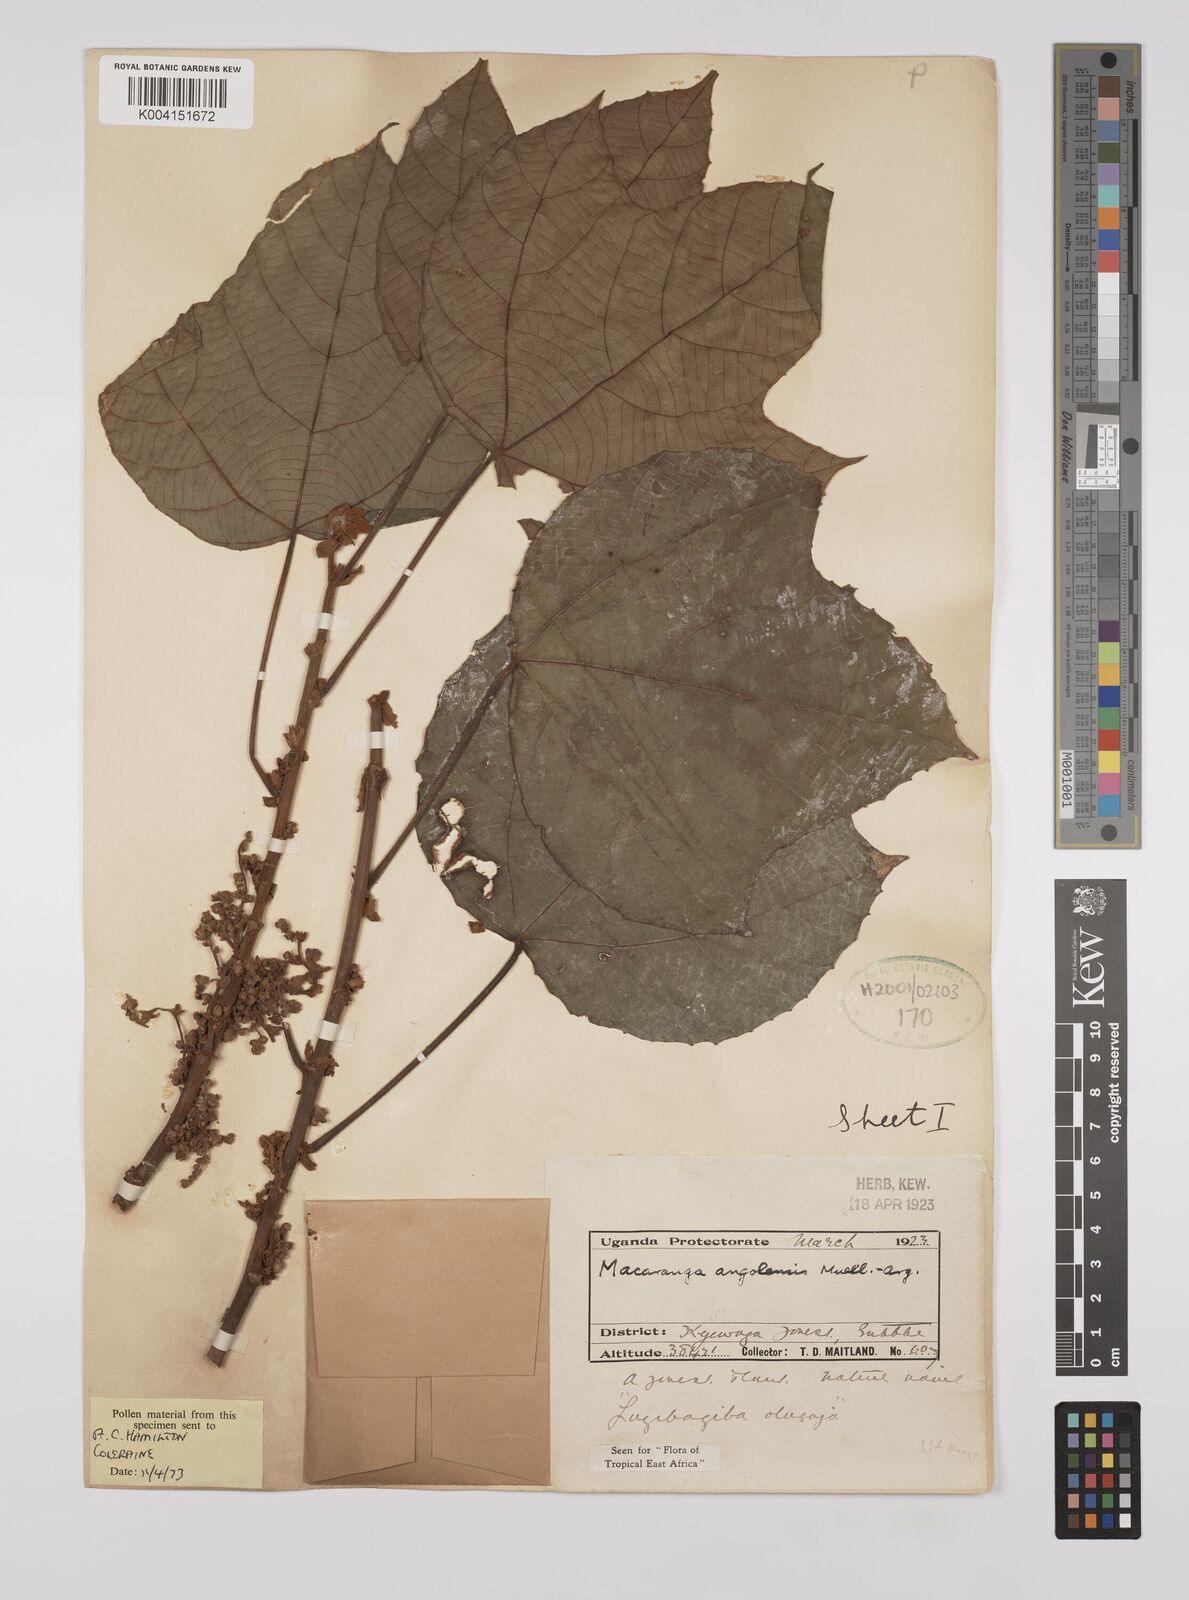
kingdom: Plantae
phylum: Tracheophyta
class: Magnoliopsida
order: Malpighiales
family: Euphorbiaceae
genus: Macaranga
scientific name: Macaranga angolensis
